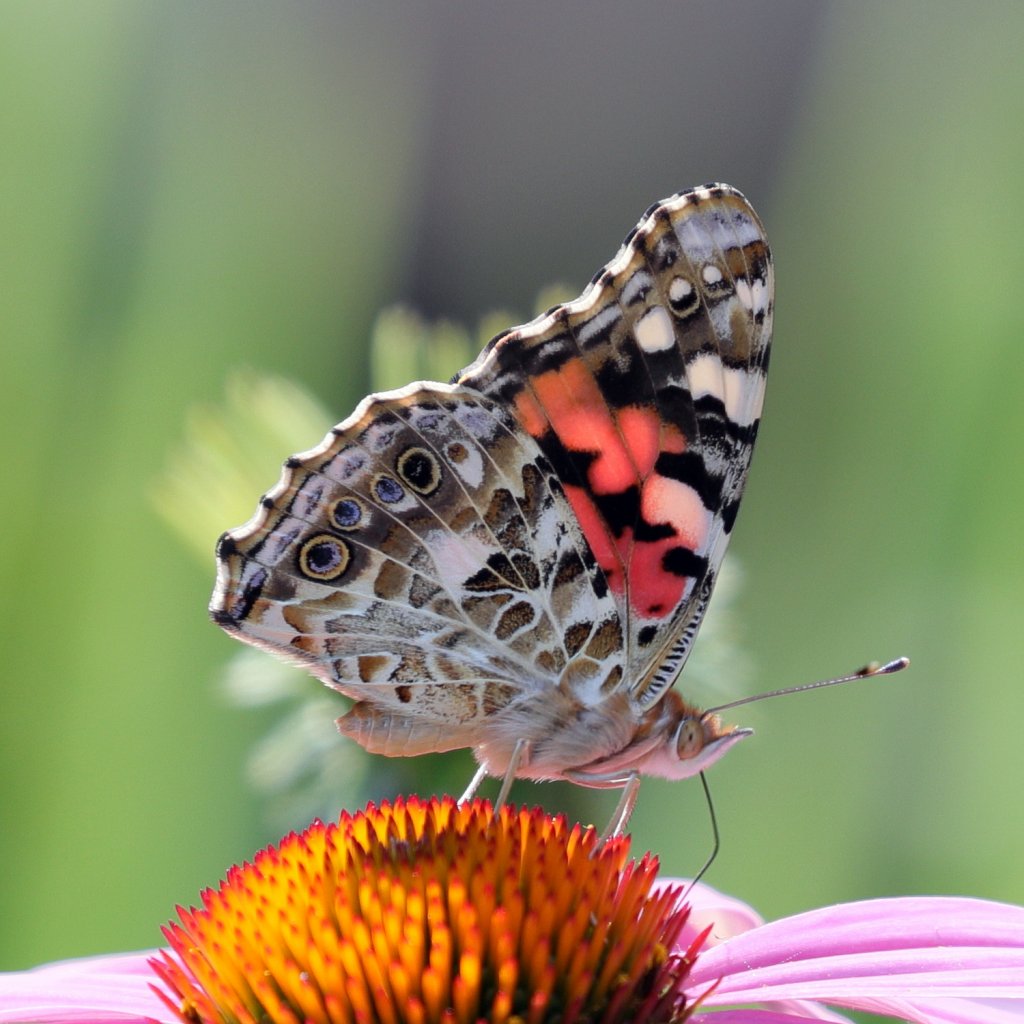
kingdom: Animalia
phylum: Arthropoda
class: Insecta
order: Lepidoptera
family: Nymphalidae
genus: Vanessa
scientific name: Vanessa cardui
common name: Painted Lady
